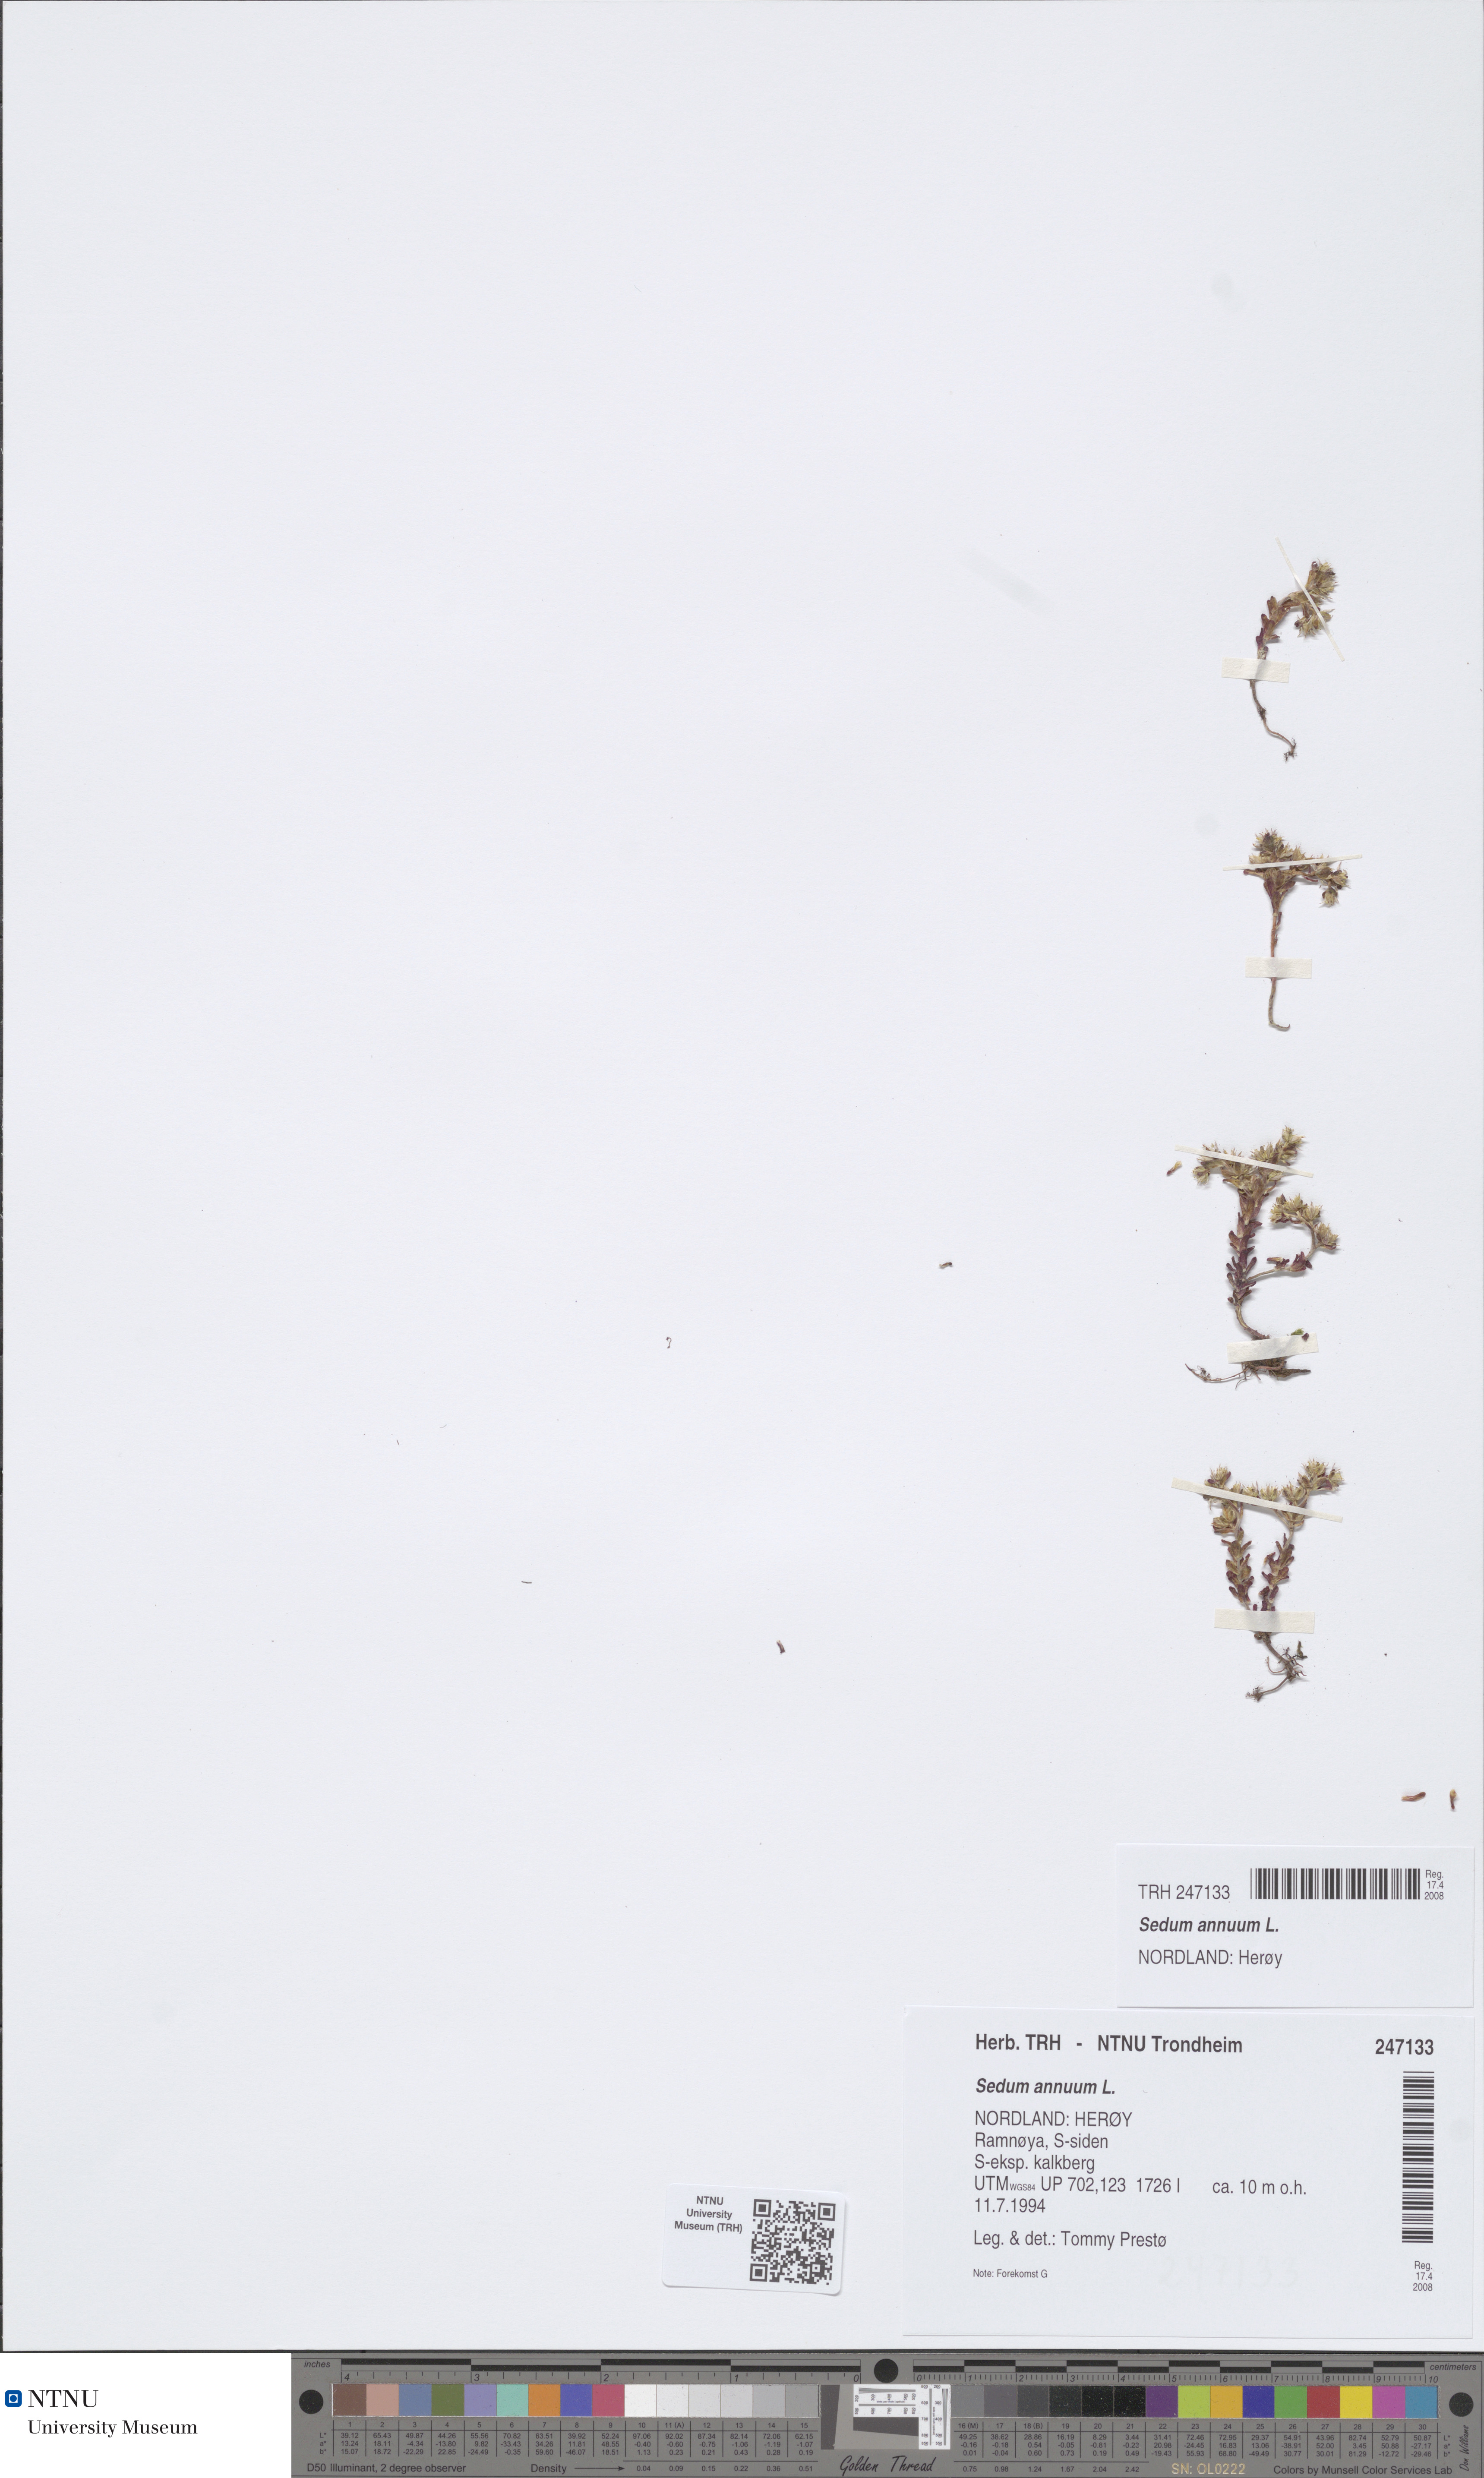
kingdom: Plantae
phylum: Tracheophyta
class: Magnoliopsida
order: Saxifragales
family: Crassulaceae
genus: Sedum
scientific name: Sedum annuum
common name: Annual stonecrop
